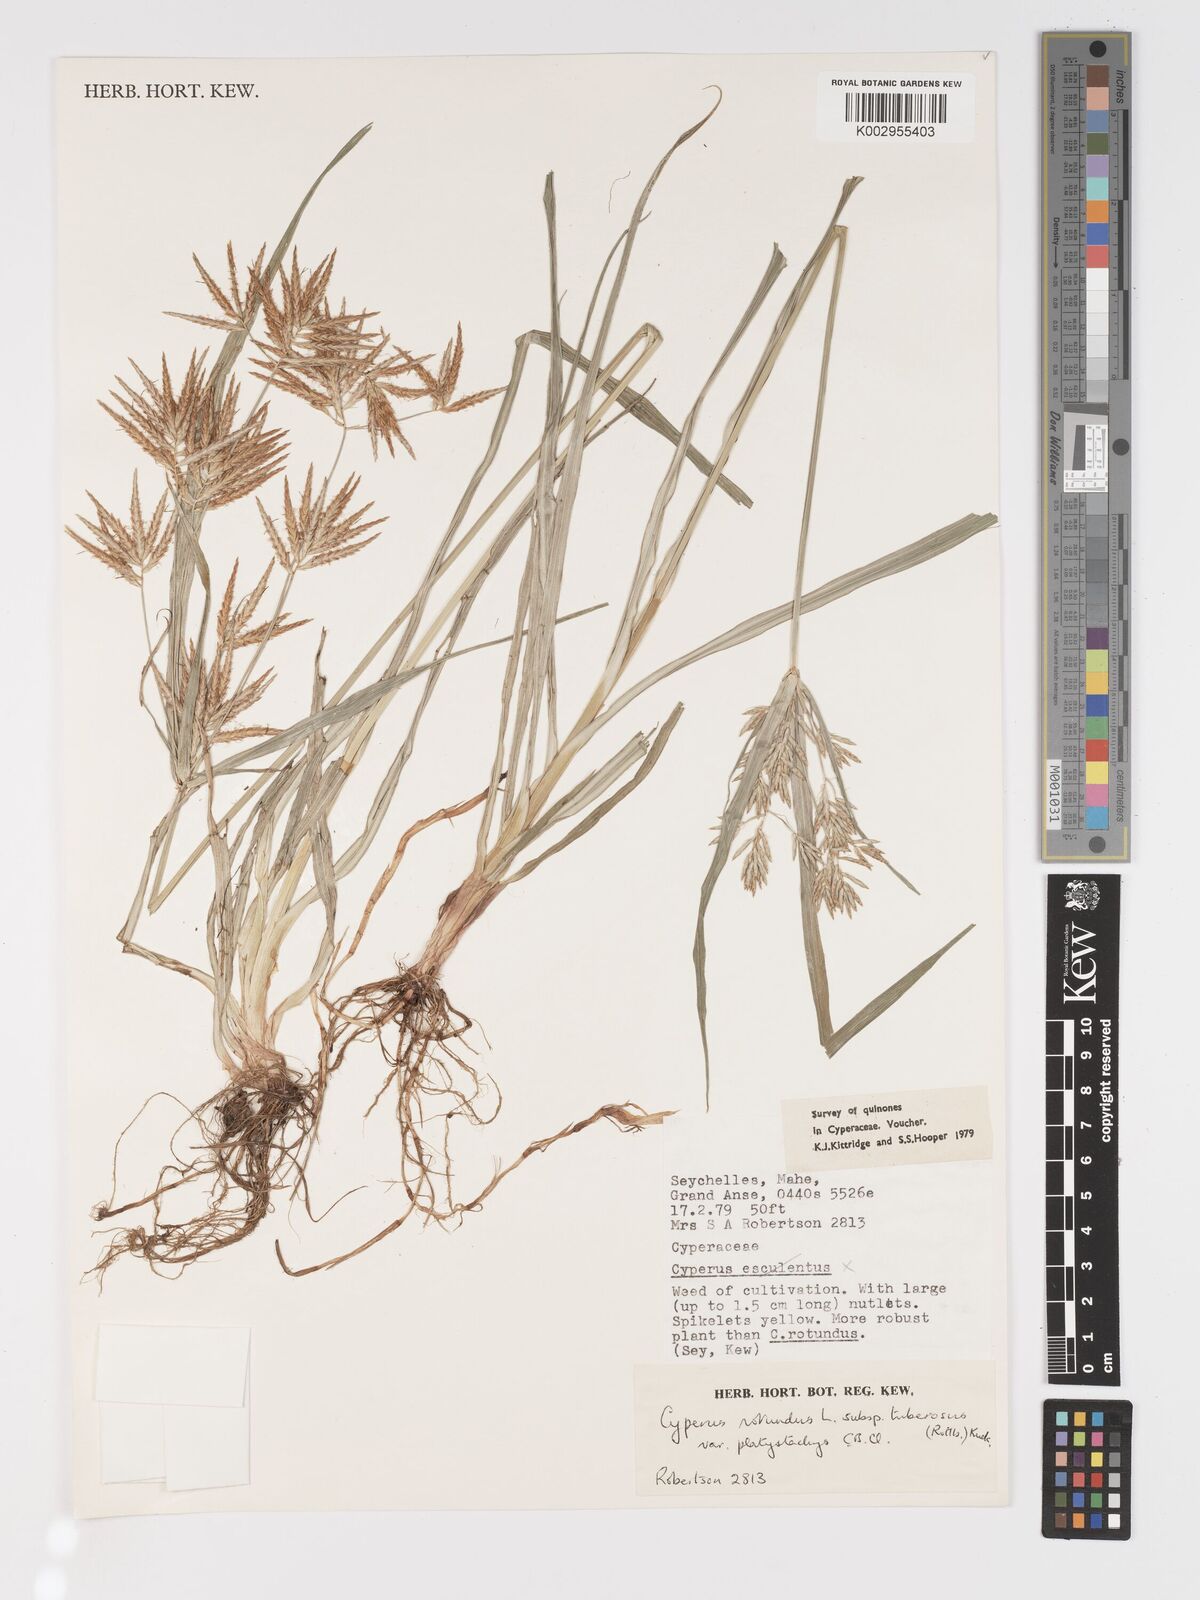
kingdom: Plantae
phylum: Tracheophyta
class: Liliopsida
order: Poales
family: Cyperaceae
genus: Cyperus
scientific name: Cyperus tuberosus
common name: Nut grass
